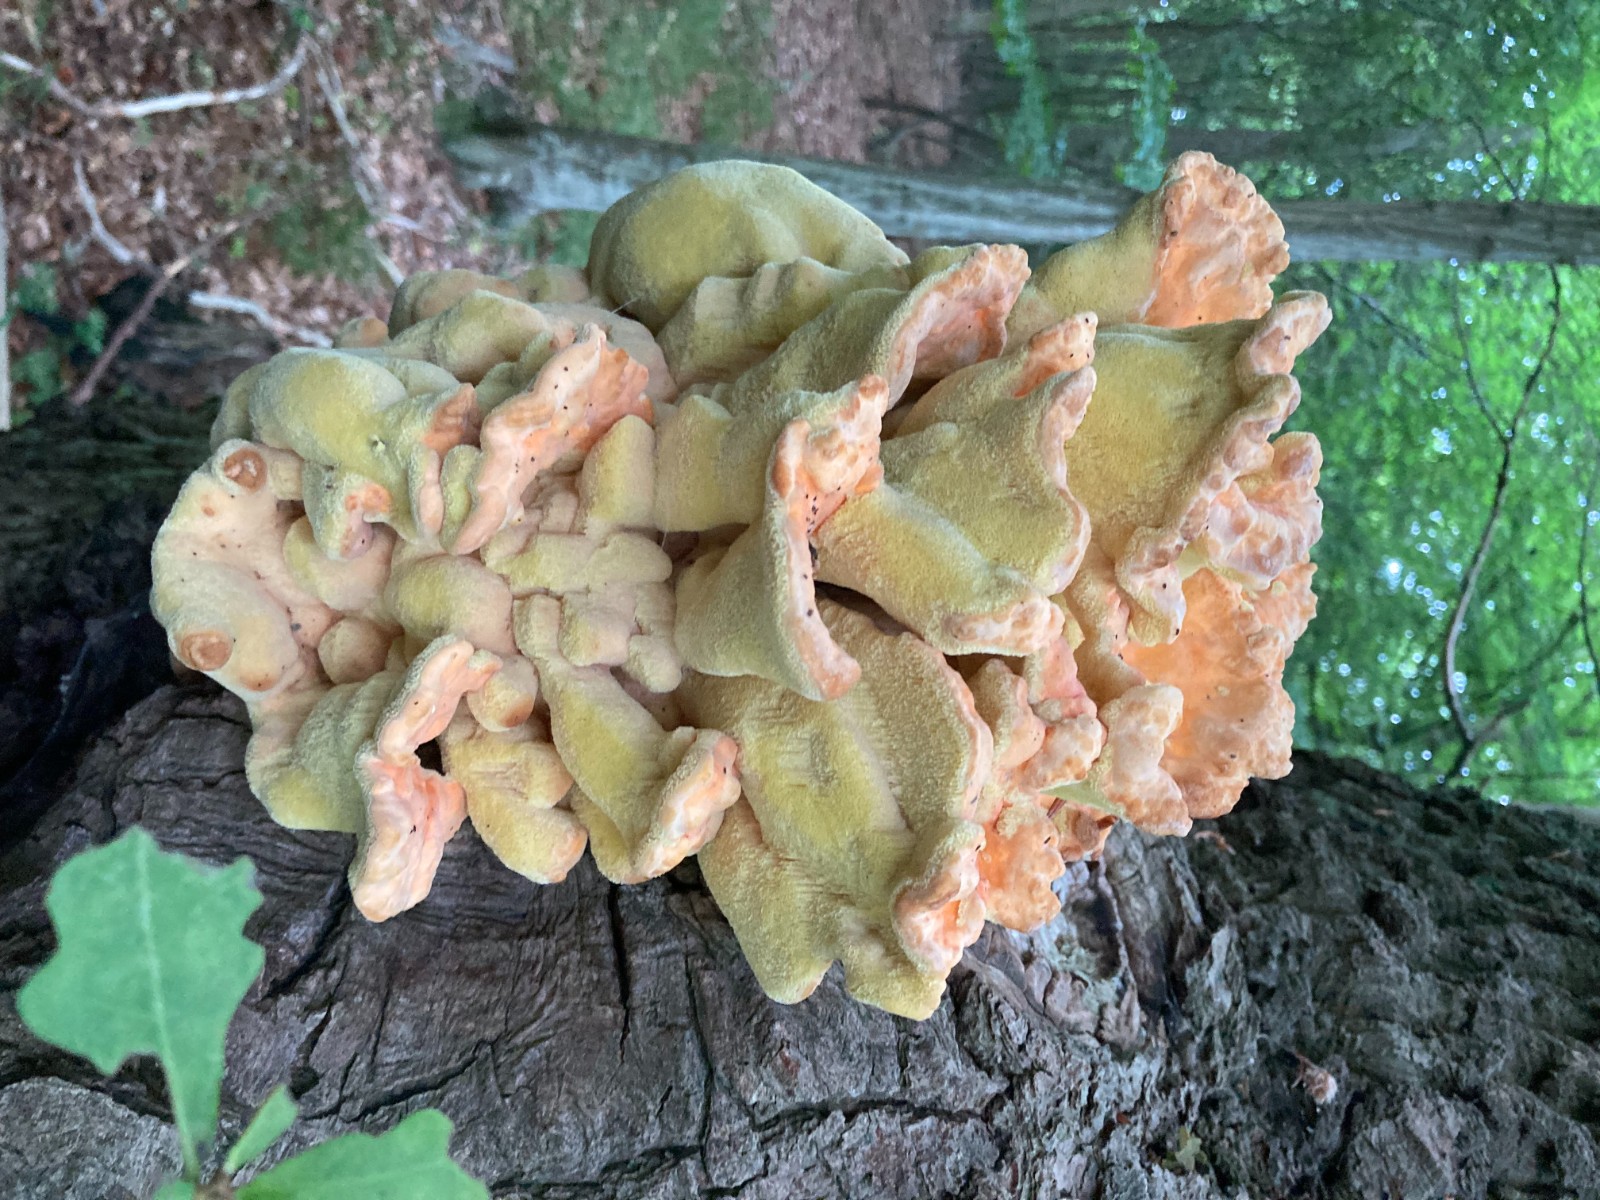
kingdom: Fungi
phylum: Basidiomycota
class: Agaricomycetes
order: Polyporales
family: Laetiporaceae
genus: Laetiporus
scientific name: Laetiporus sulphureus
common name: svovlporesvamp
